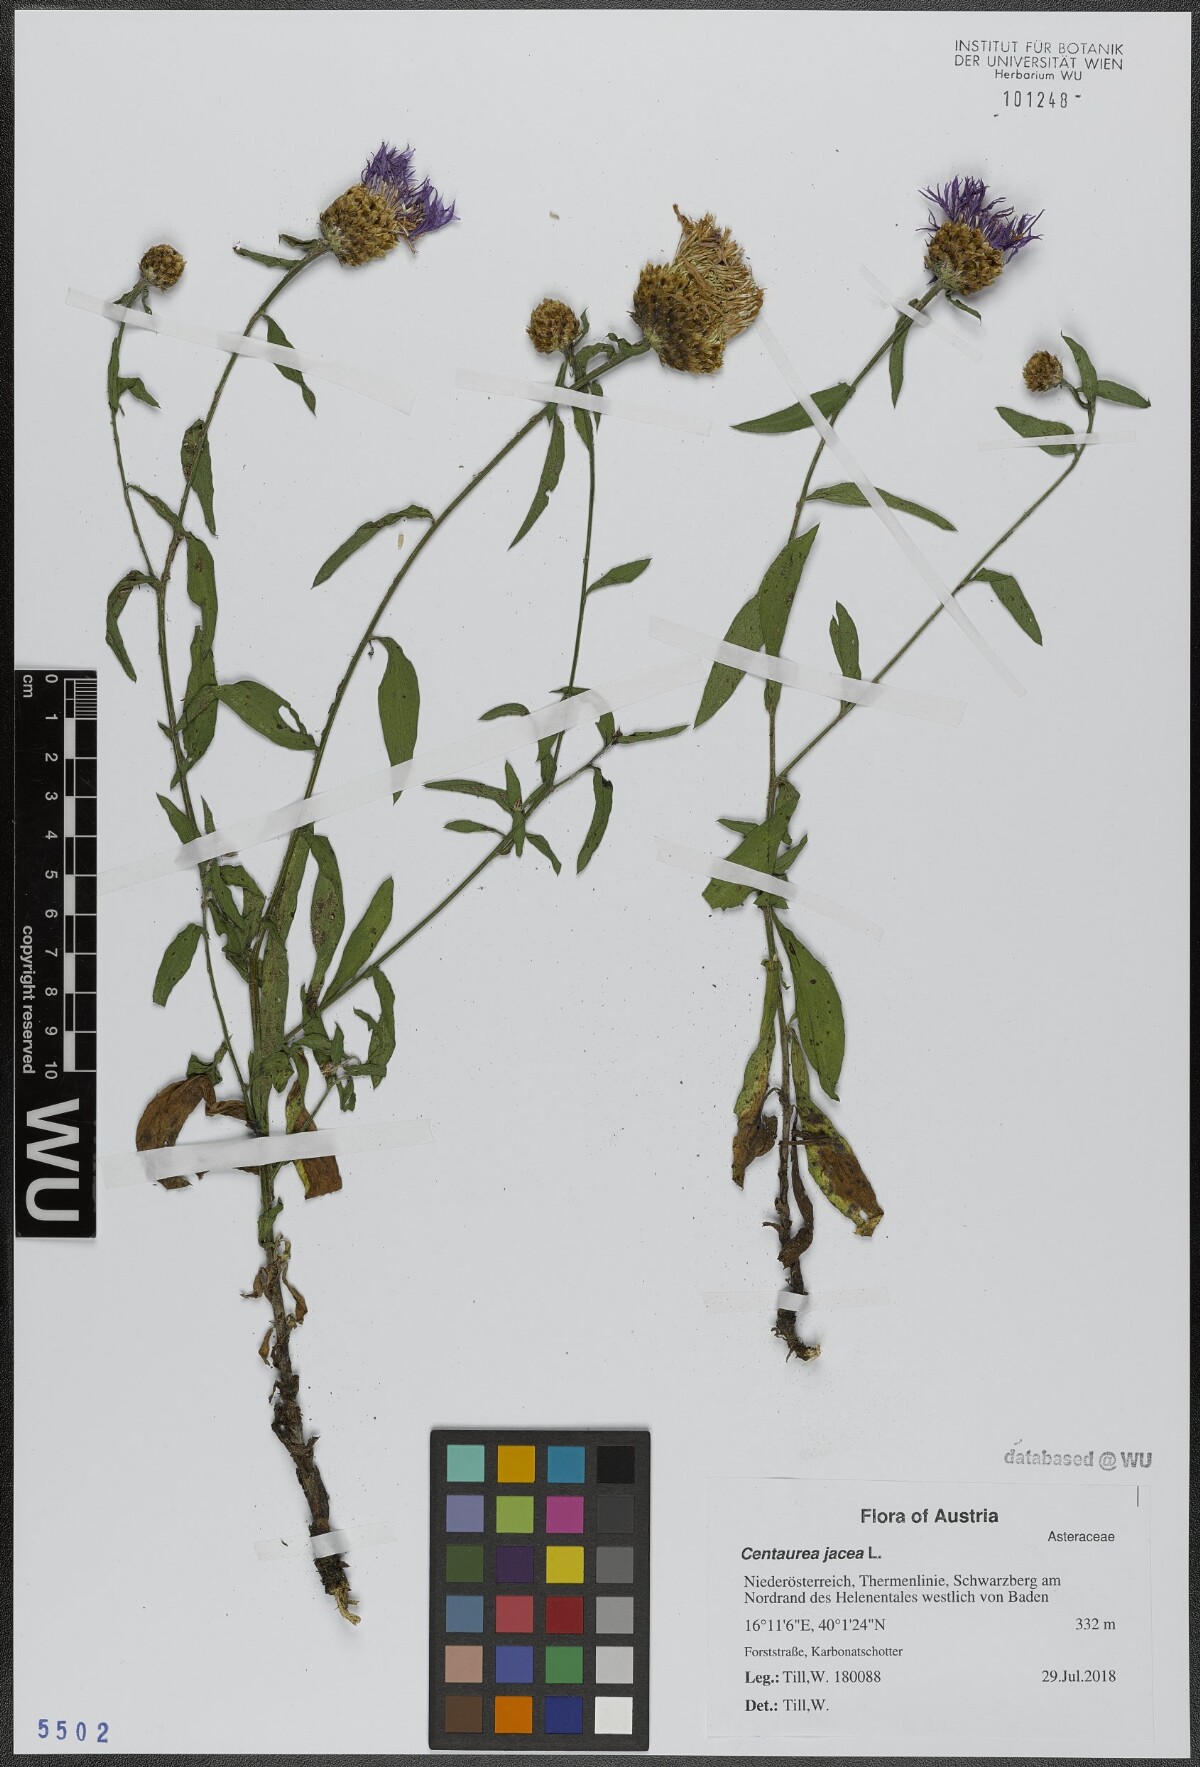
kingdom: Plantae
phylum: Tracheophyta
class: Magnoliopsida
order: Asterales
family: Asteraceae
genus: Centaurea
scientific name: Centaurea jacea
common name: Brown knapweed
